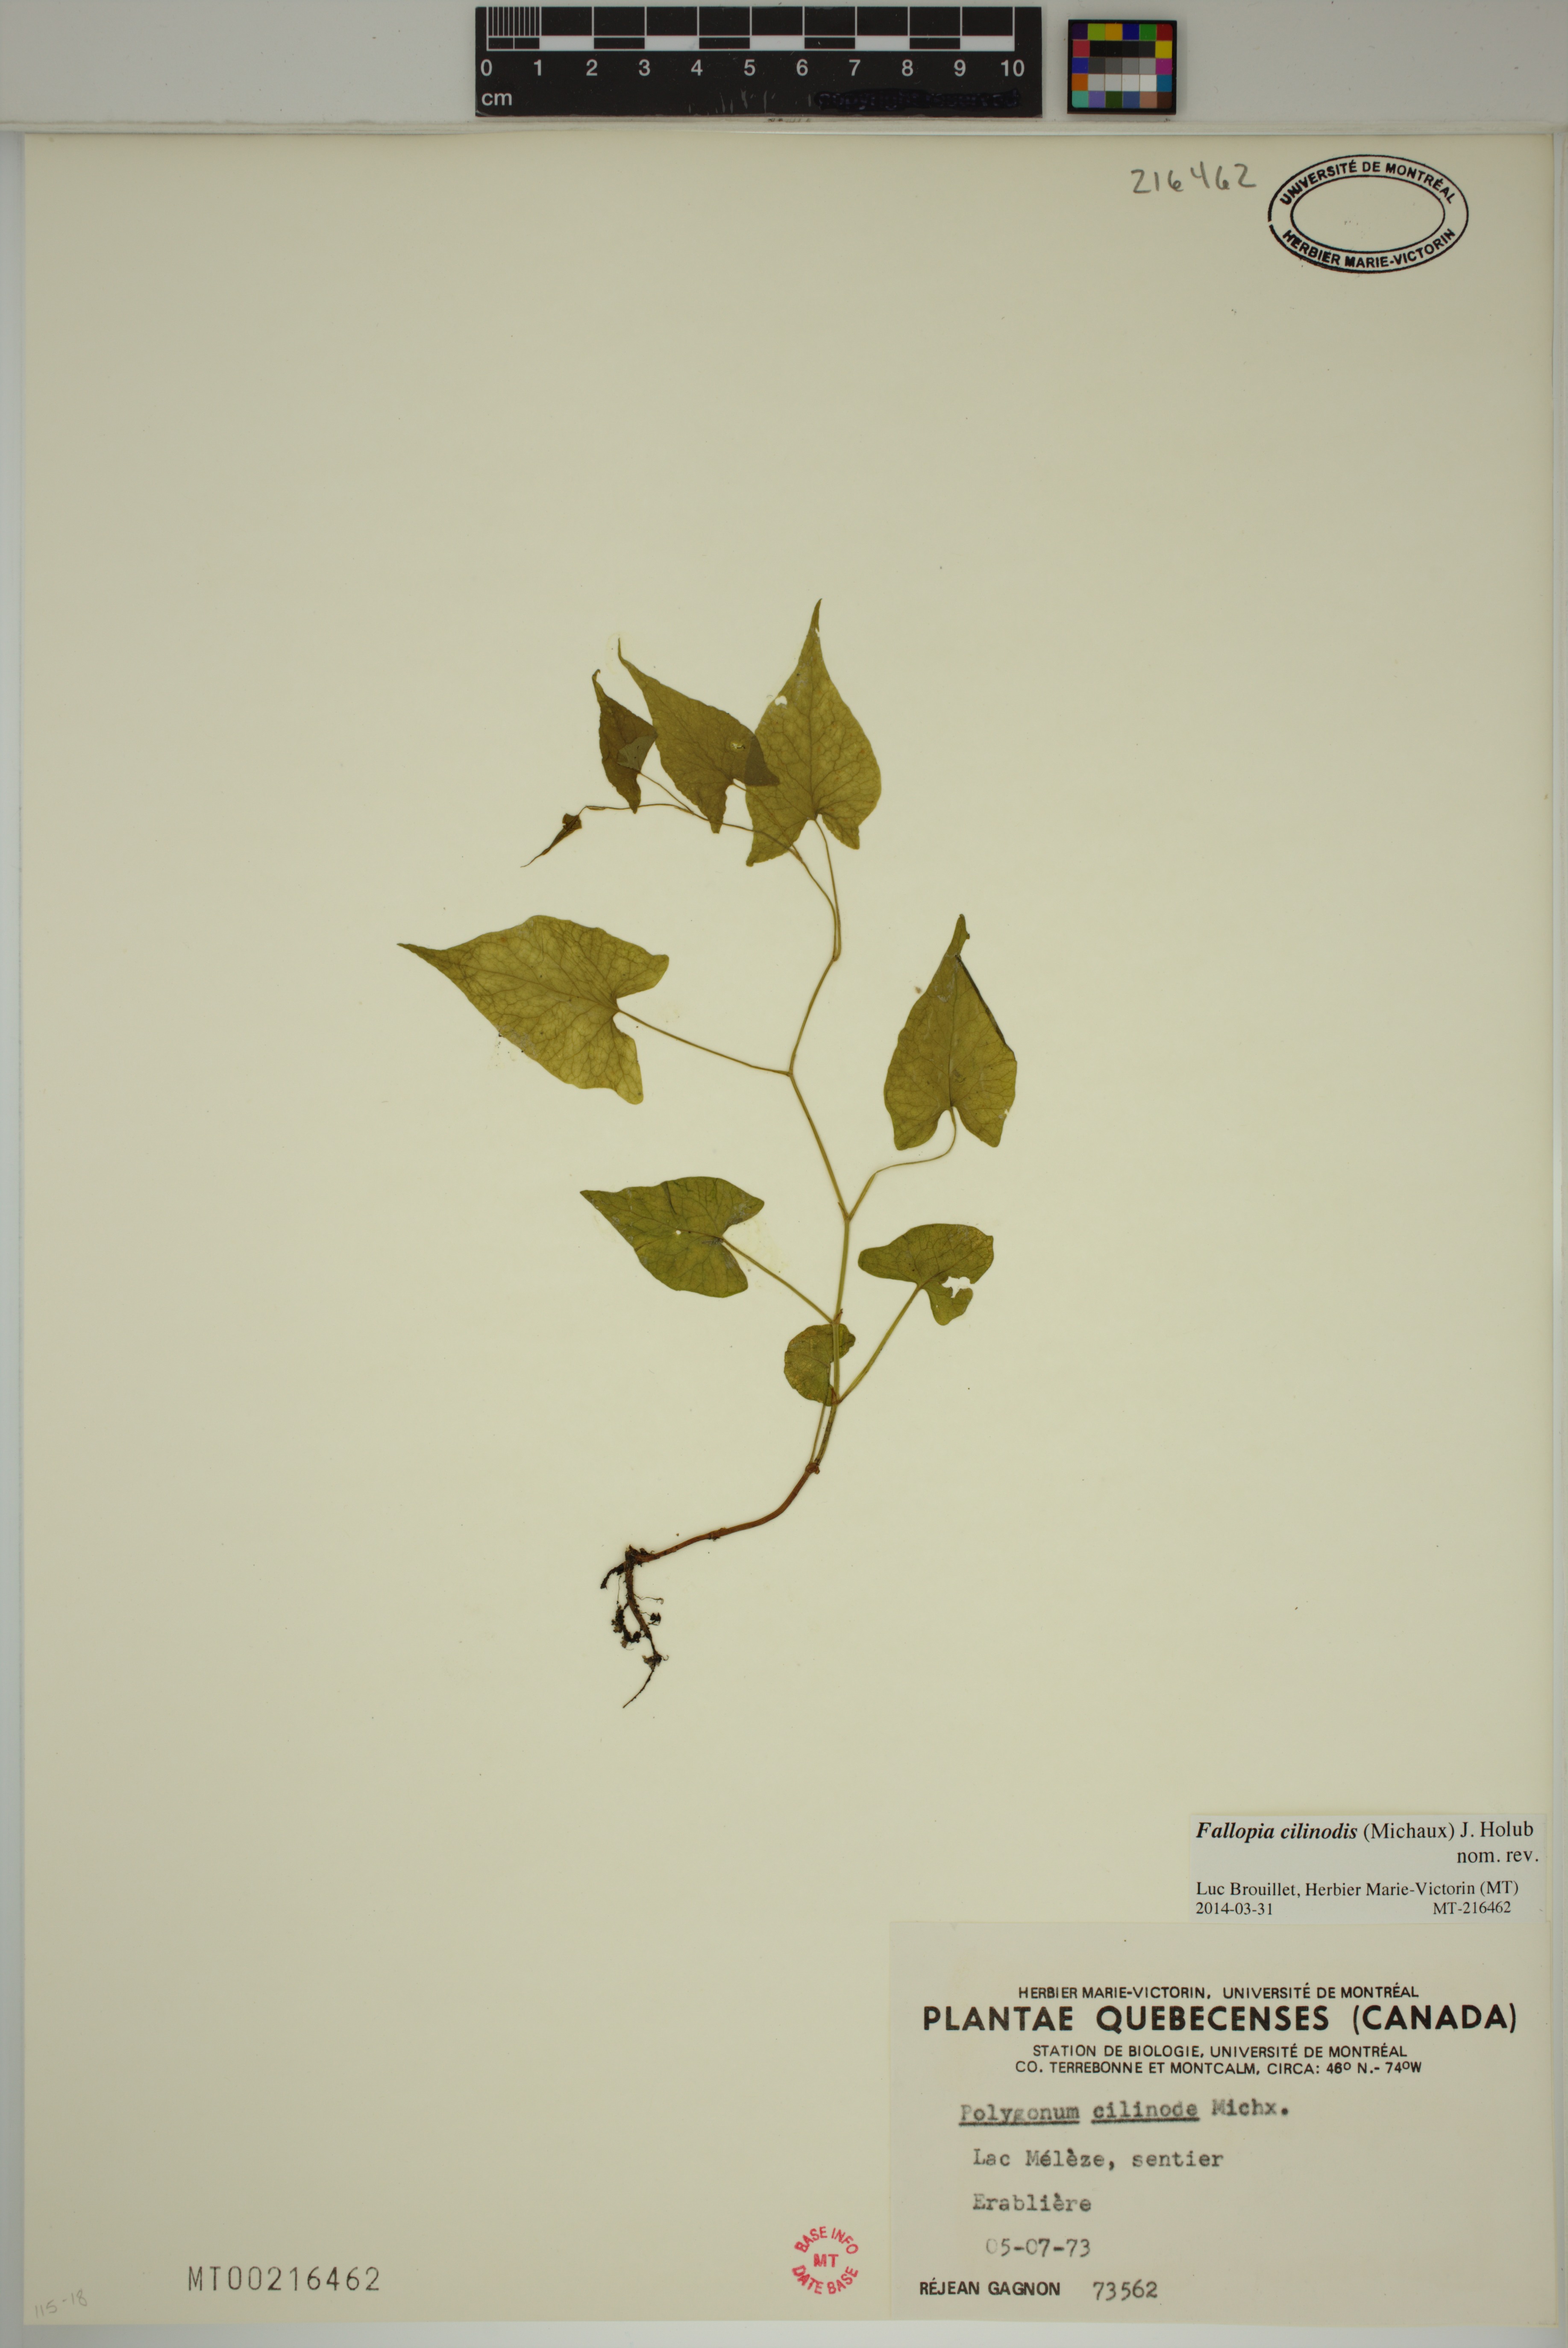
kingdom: Plantae
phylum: Tracheophyta
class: Magnoliopsida
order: Caryophyllales
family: Polygonaceae
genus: Parogonum
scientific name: Parogonum ciliinode
